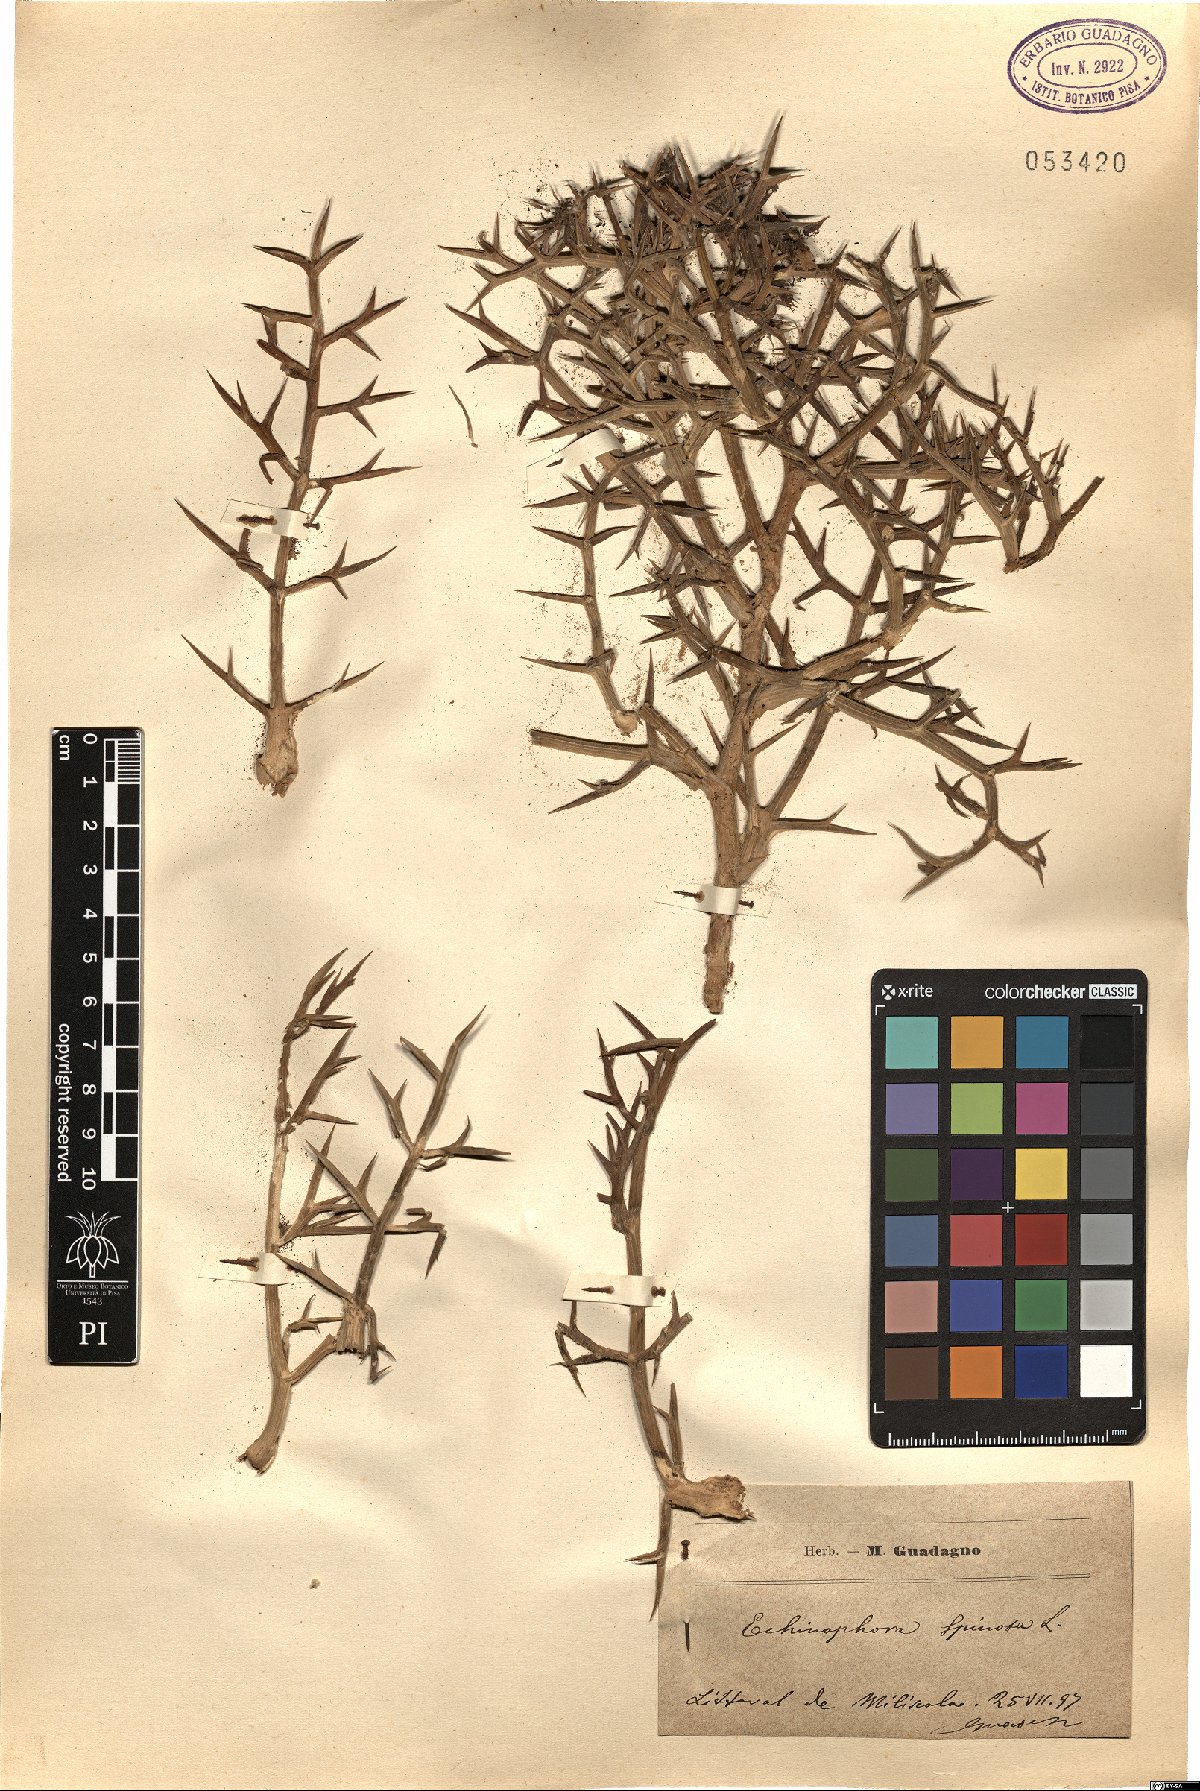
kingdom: Plantae
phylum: Tracheophyta
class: Magnoliopsida
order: Apiales
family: Apiaceae
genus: Echinophora
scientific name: Echinophora spinosa
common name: Prickly samphire
